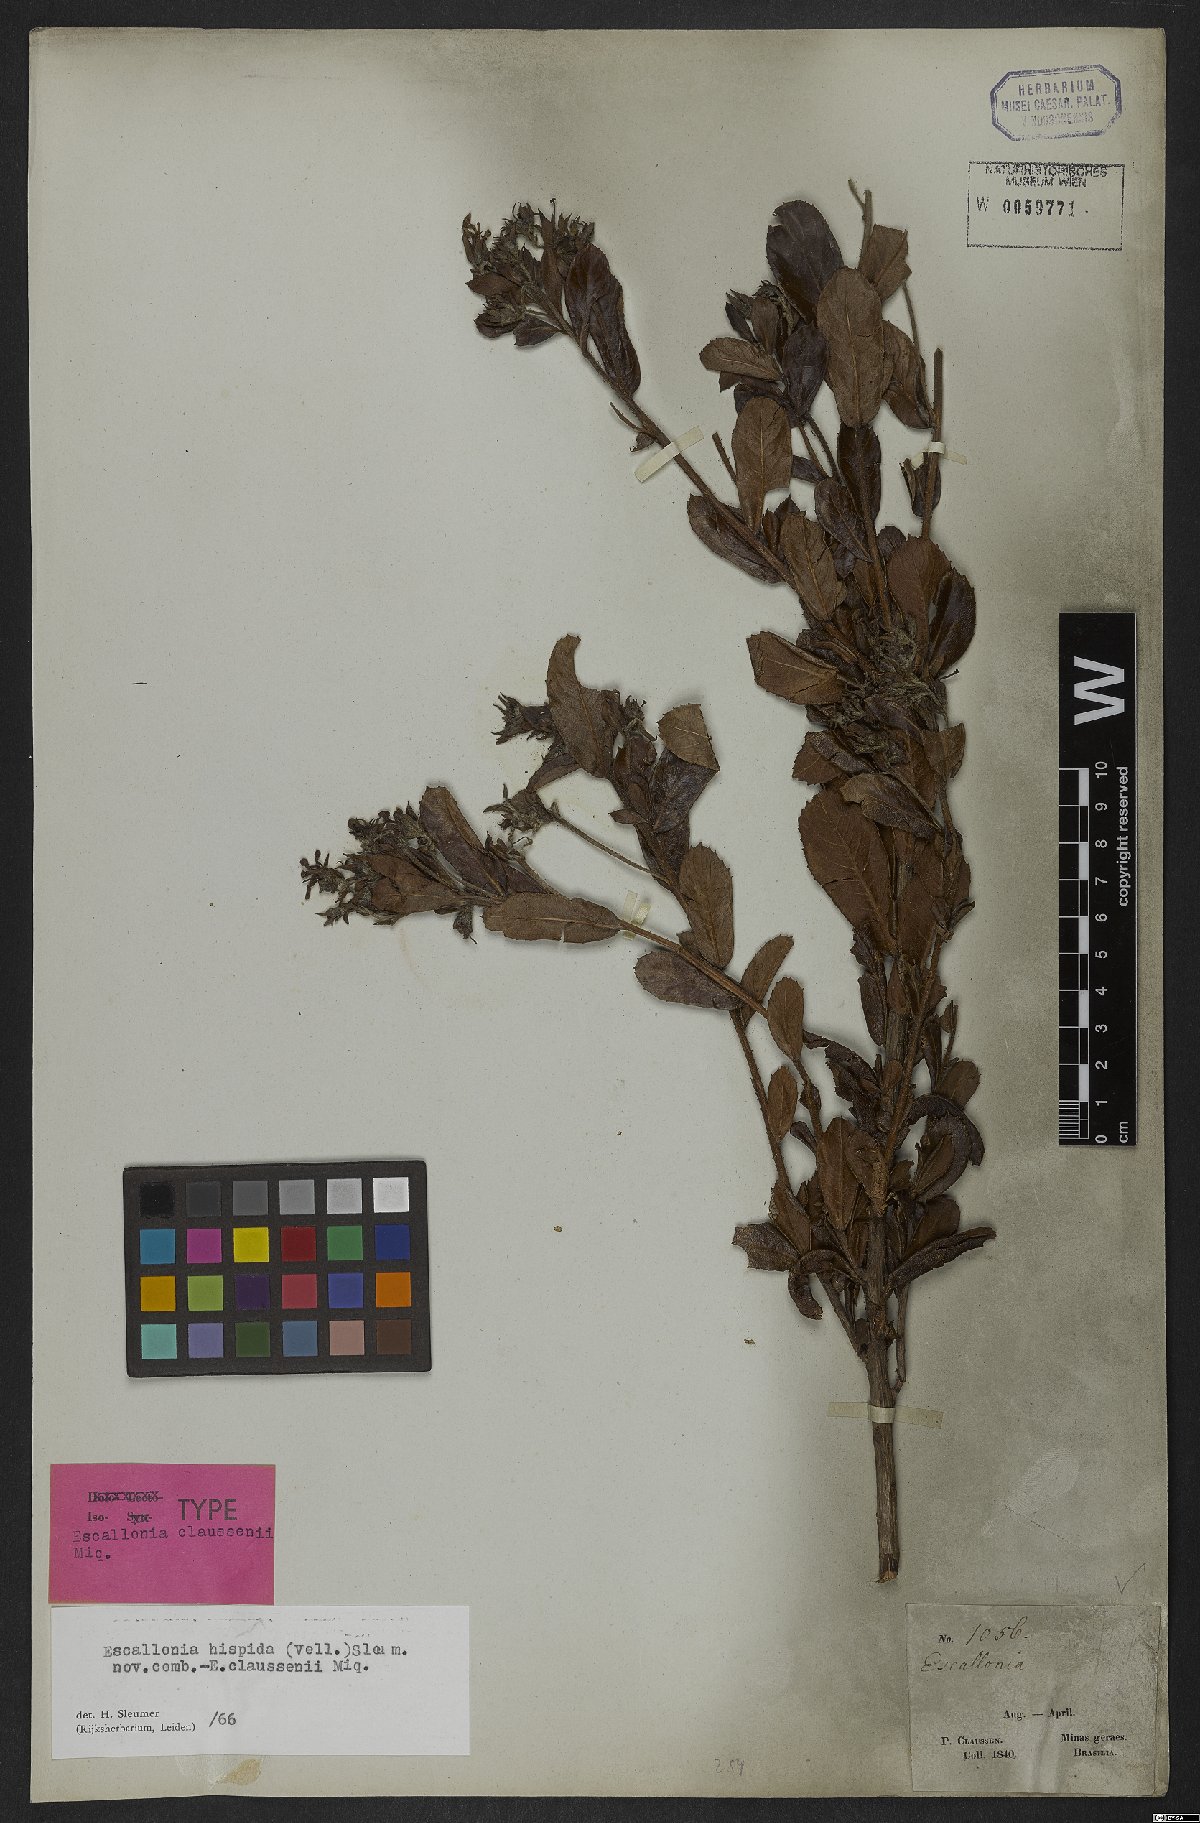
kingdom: Plantae
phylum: Tracheophyta
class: Magnoliopsida
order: Escalloniales
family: Escalloniaceae
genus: Escallonia
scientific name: Escallonia hispida
